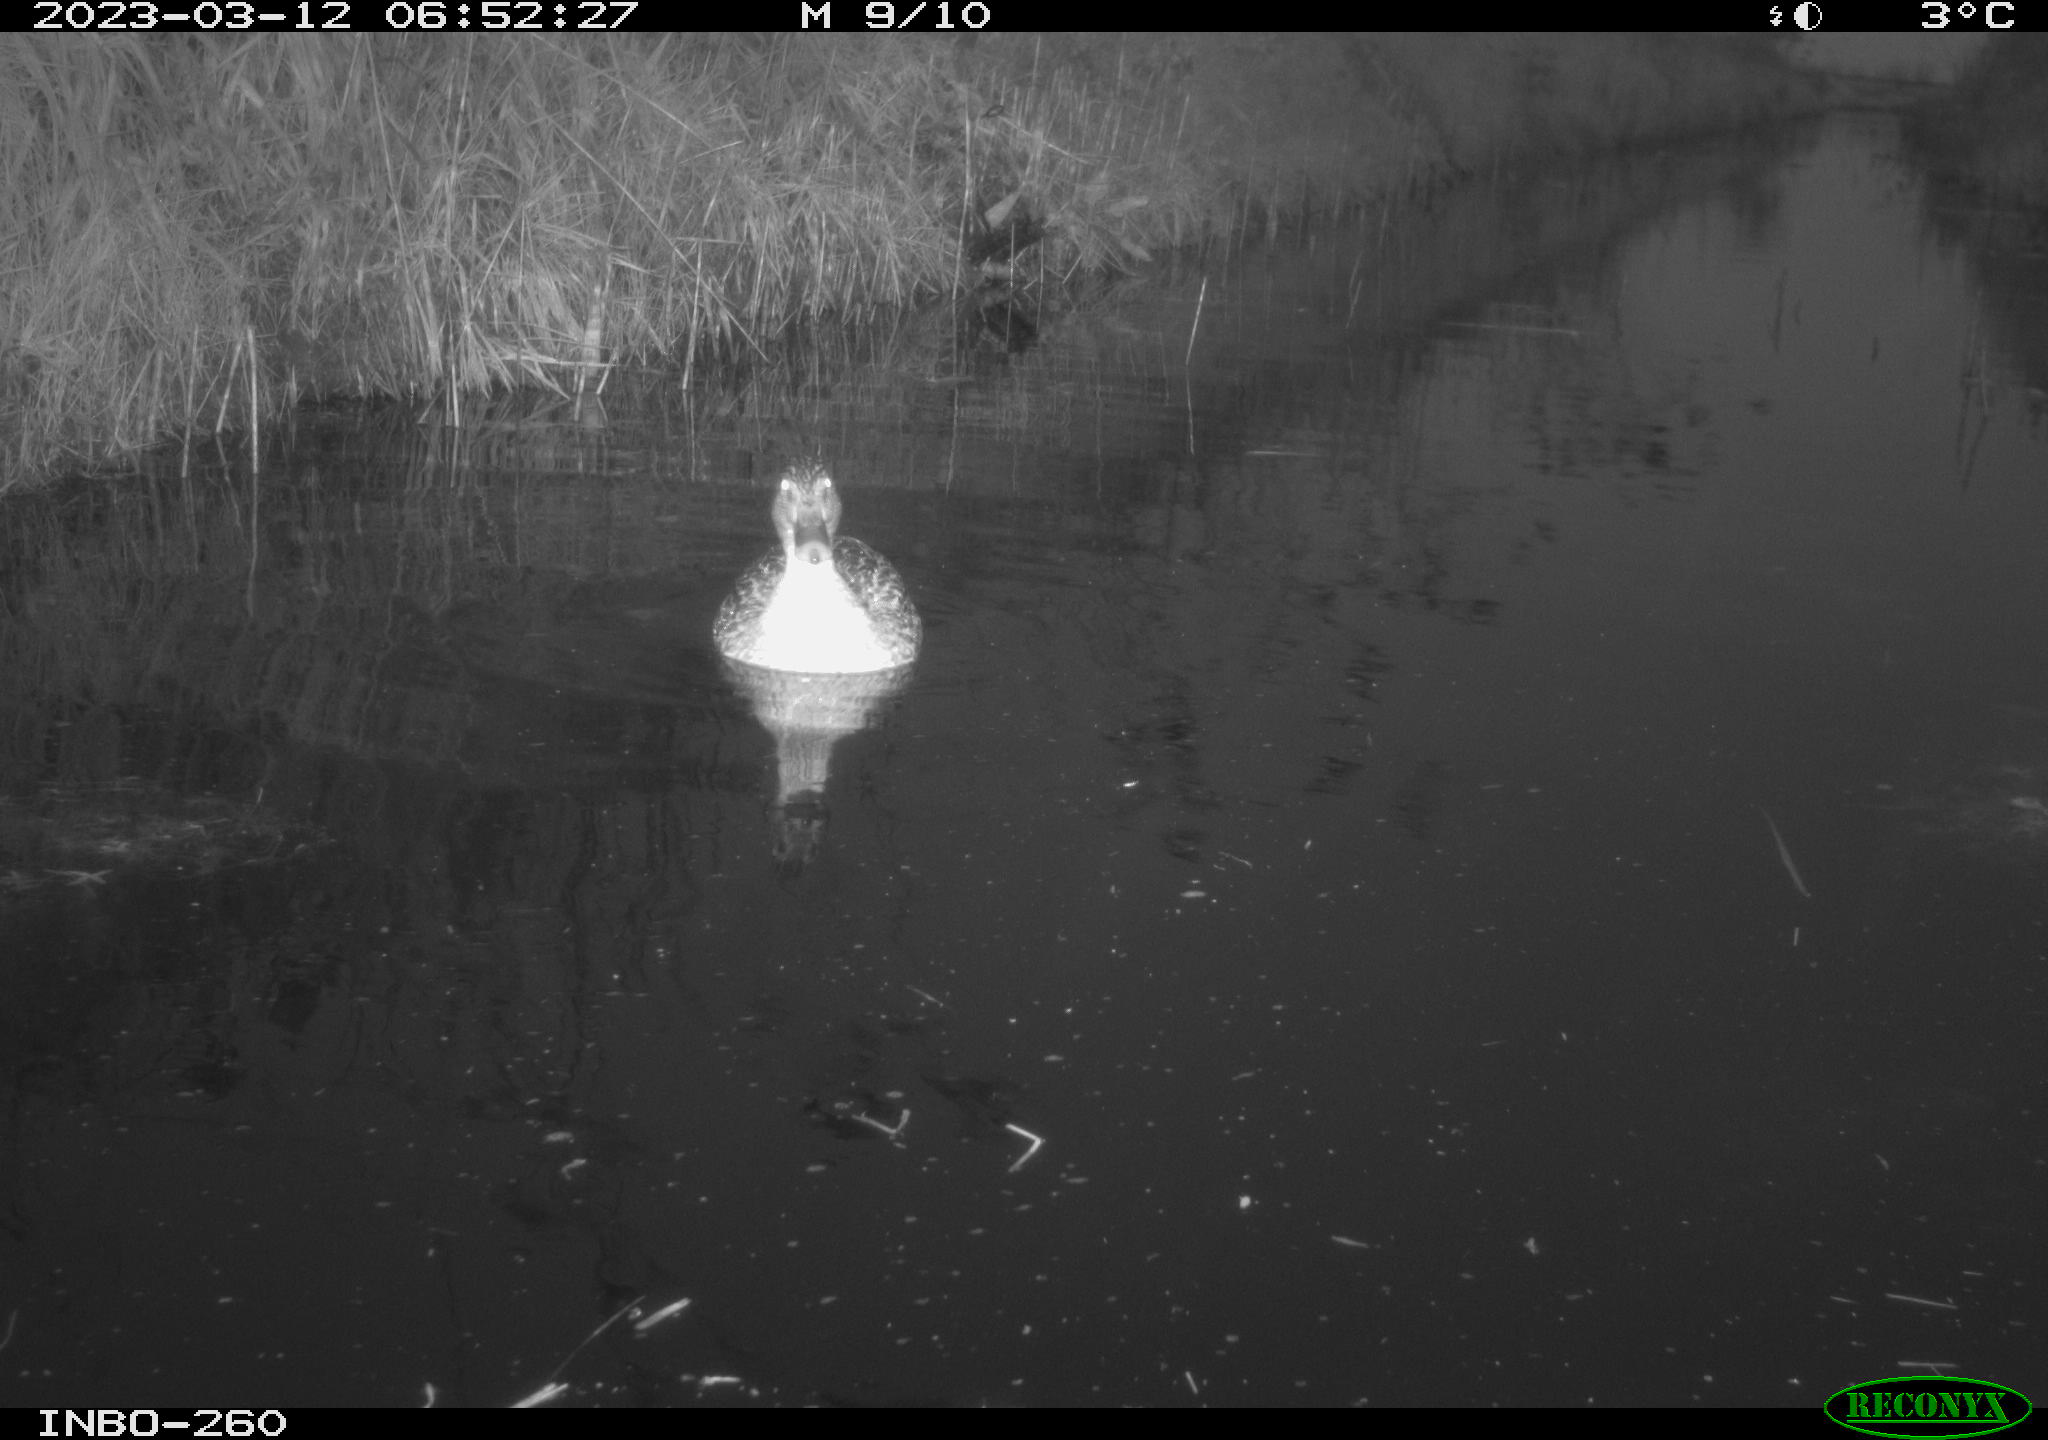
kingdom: Animalia
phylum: Chordata
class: Aves
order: Anseriformes
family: Anatidae
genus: Anas
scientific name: Anas
